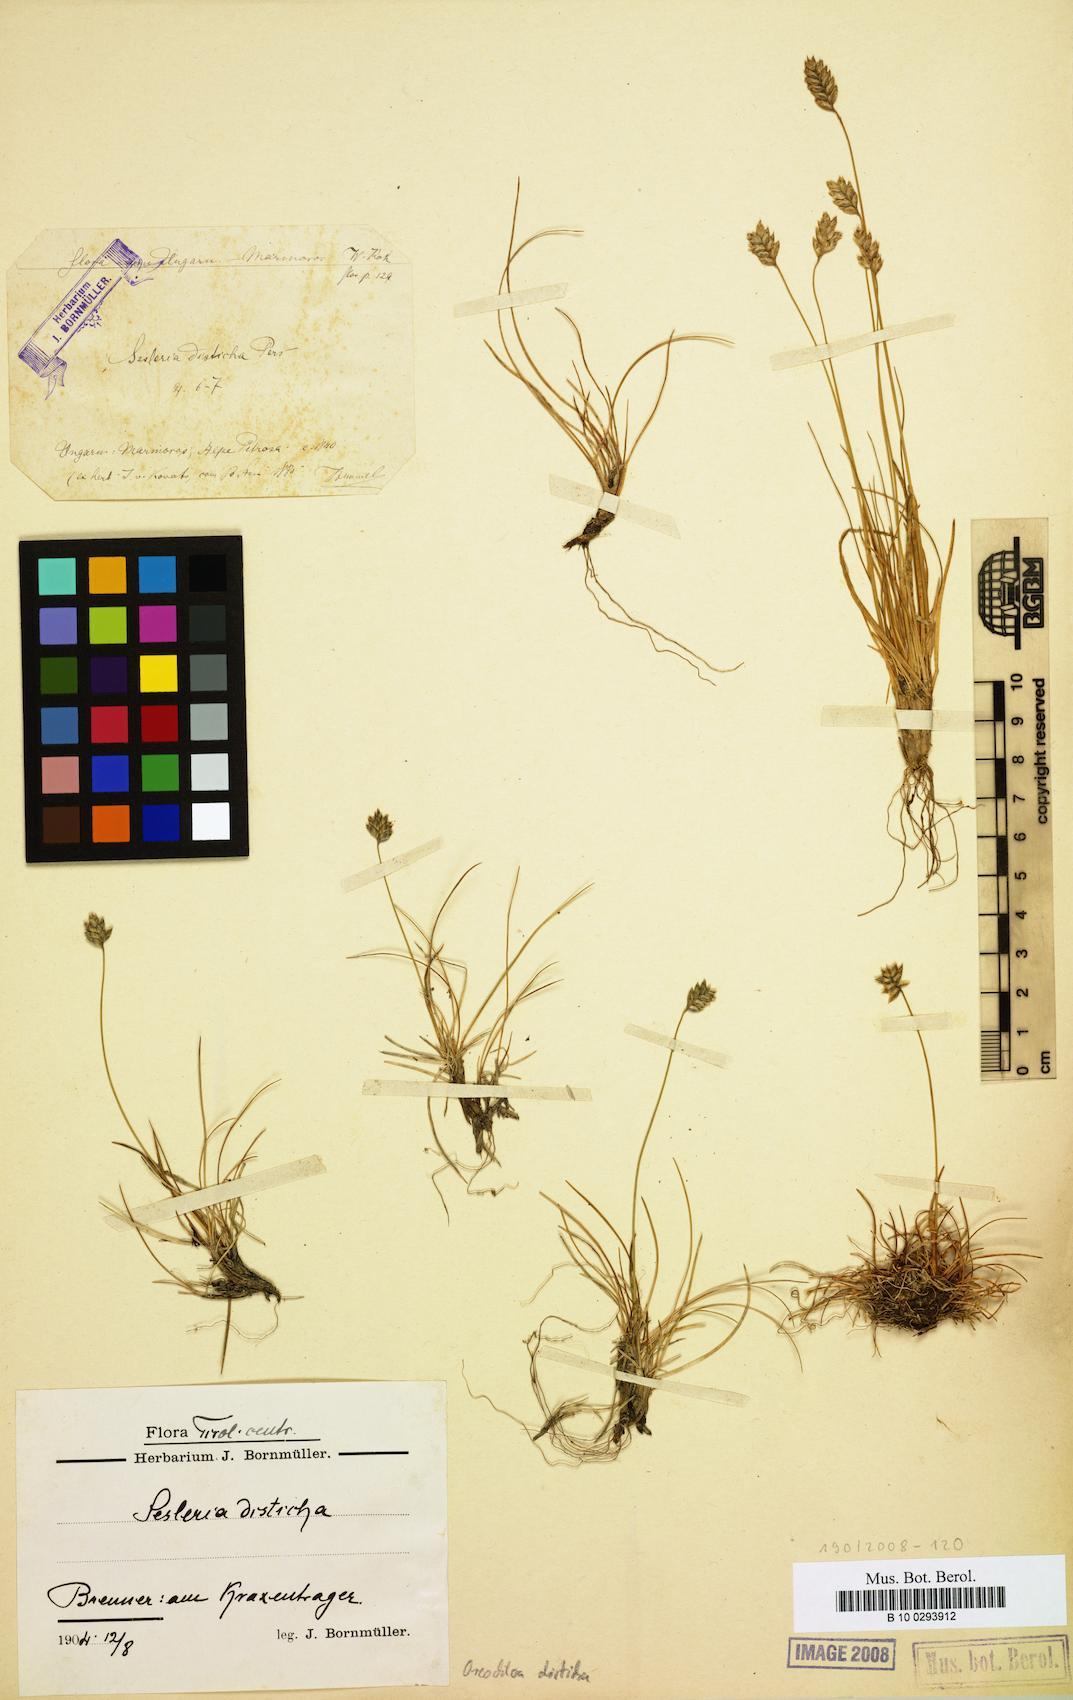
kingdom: Plantae
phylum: Tracheophyta
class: Liliopsida
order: Poales
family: Poaceae
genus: Oreochloa
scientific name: Oreochloa disticha
